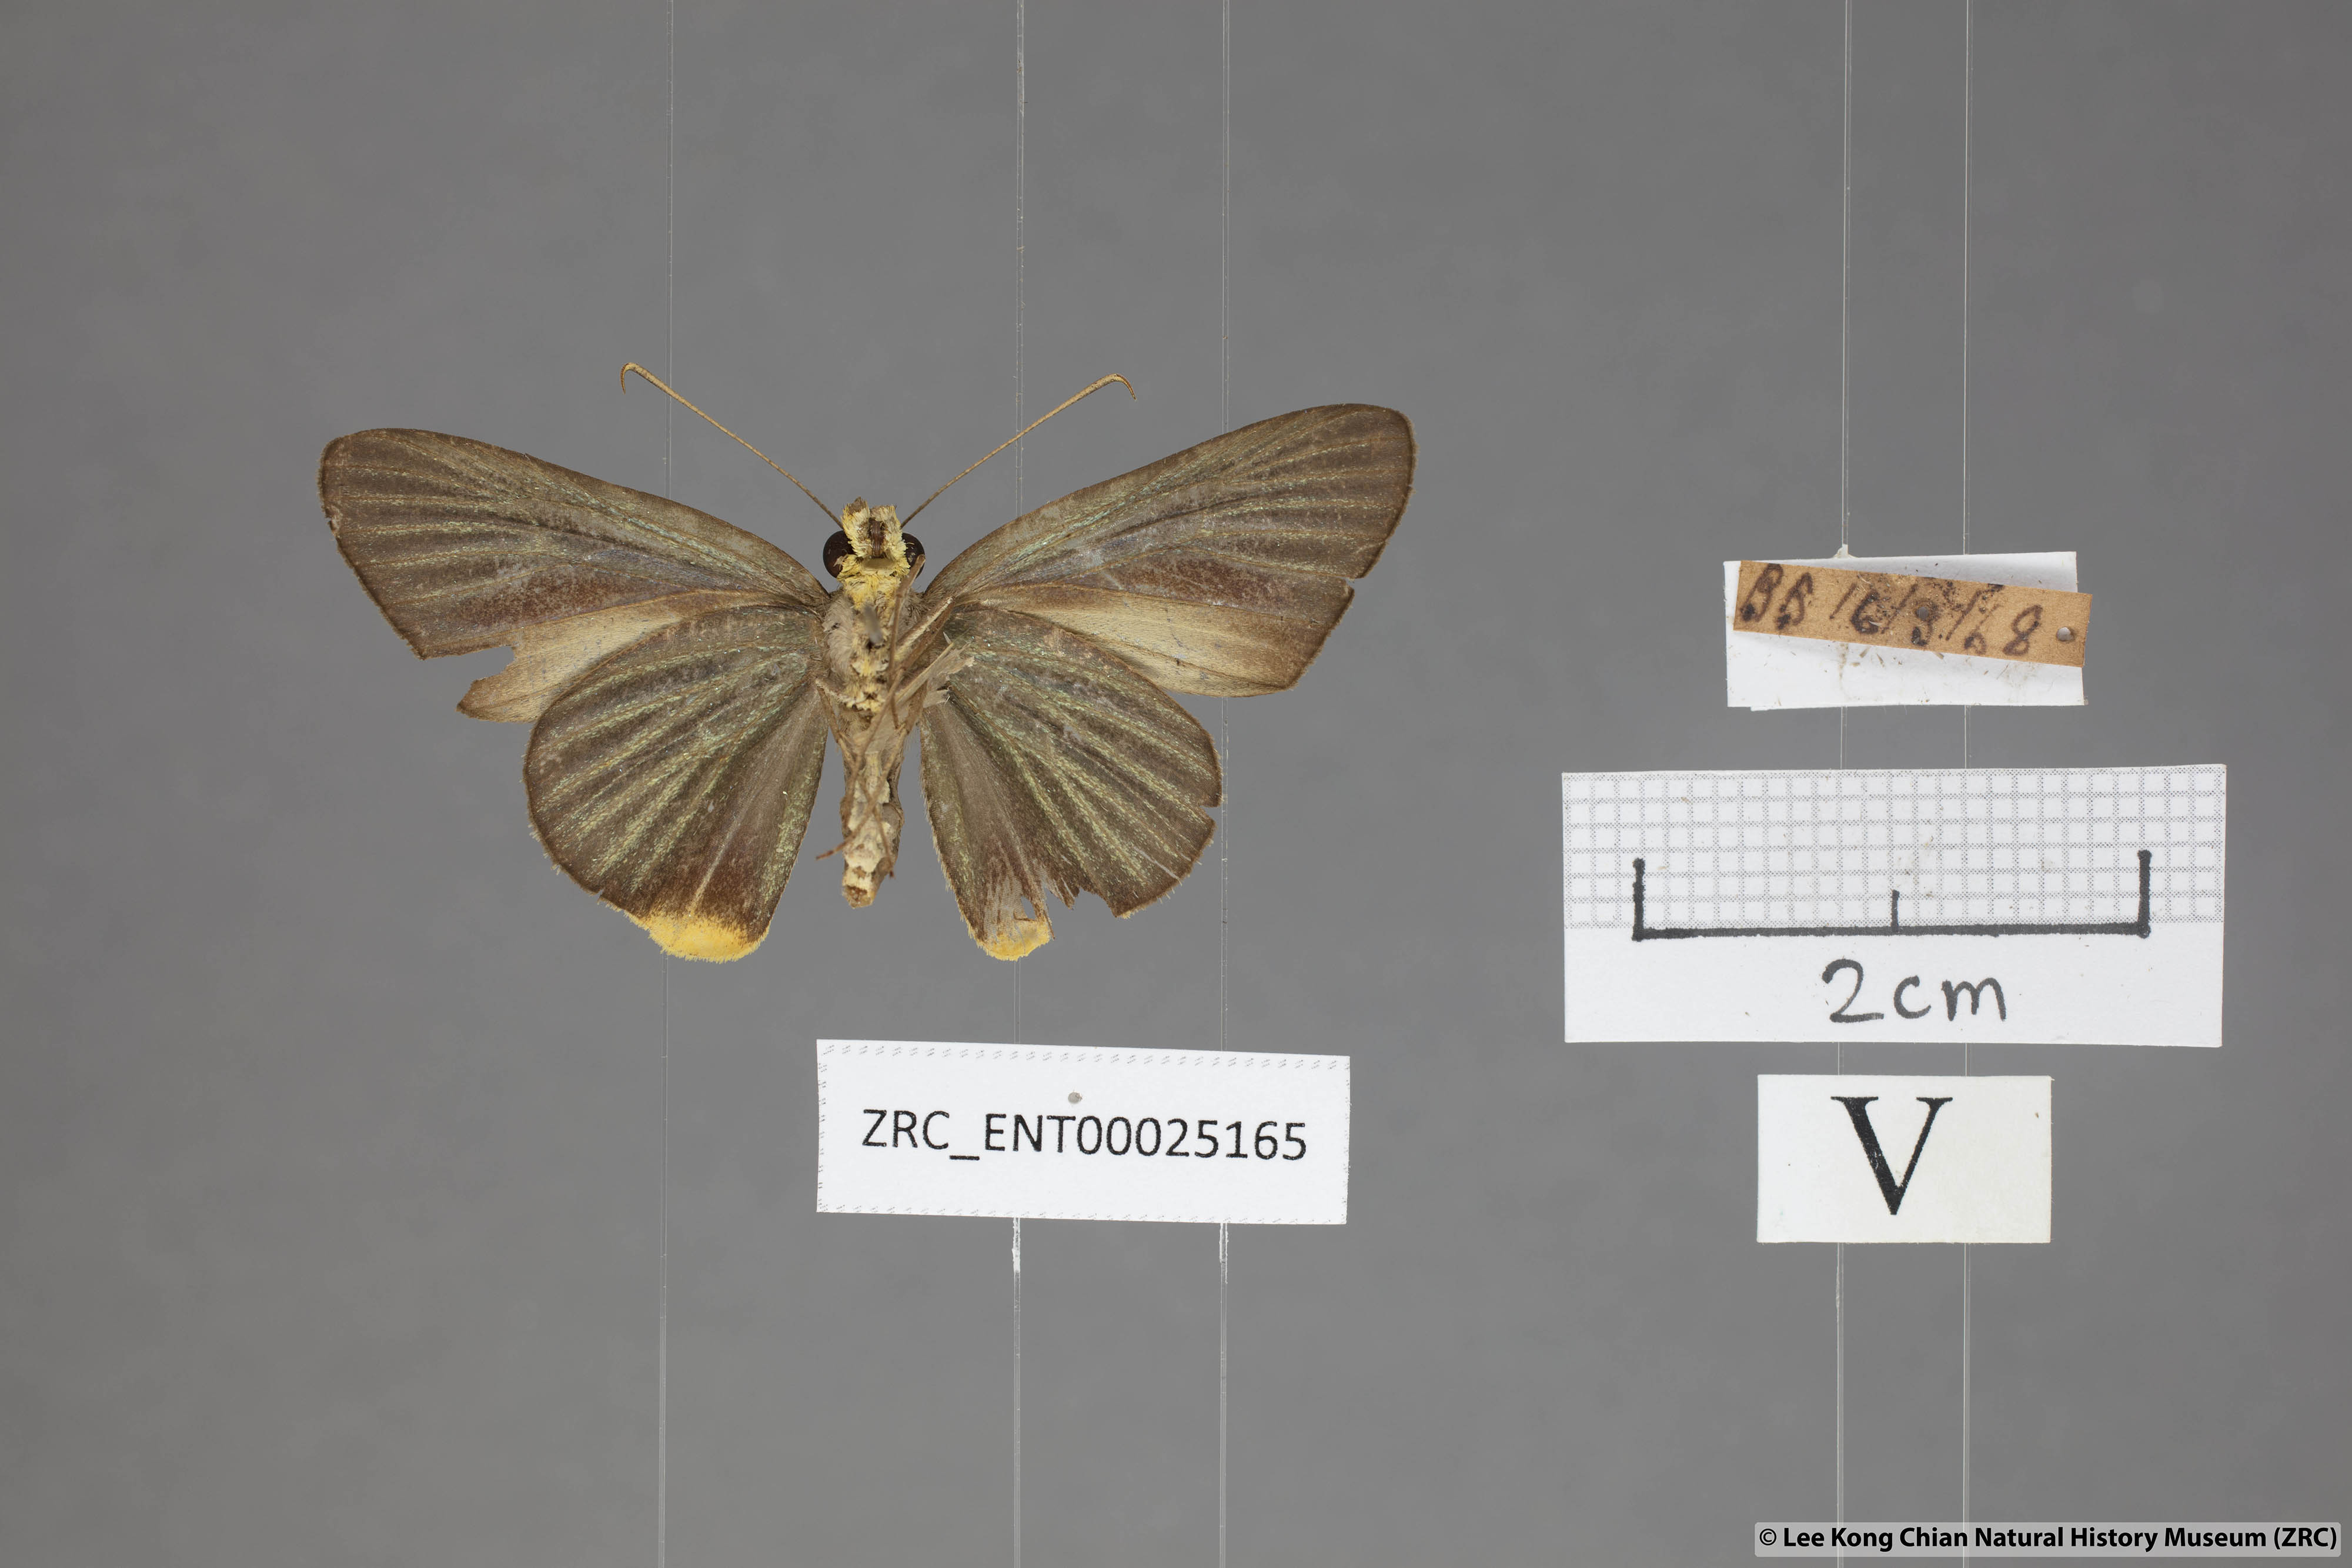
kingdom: Animalia
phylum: Arthropoda
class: Insecta
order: Lepidoptera
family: Hesperiidae
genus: Pirdana
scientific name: Pirdana hyela
